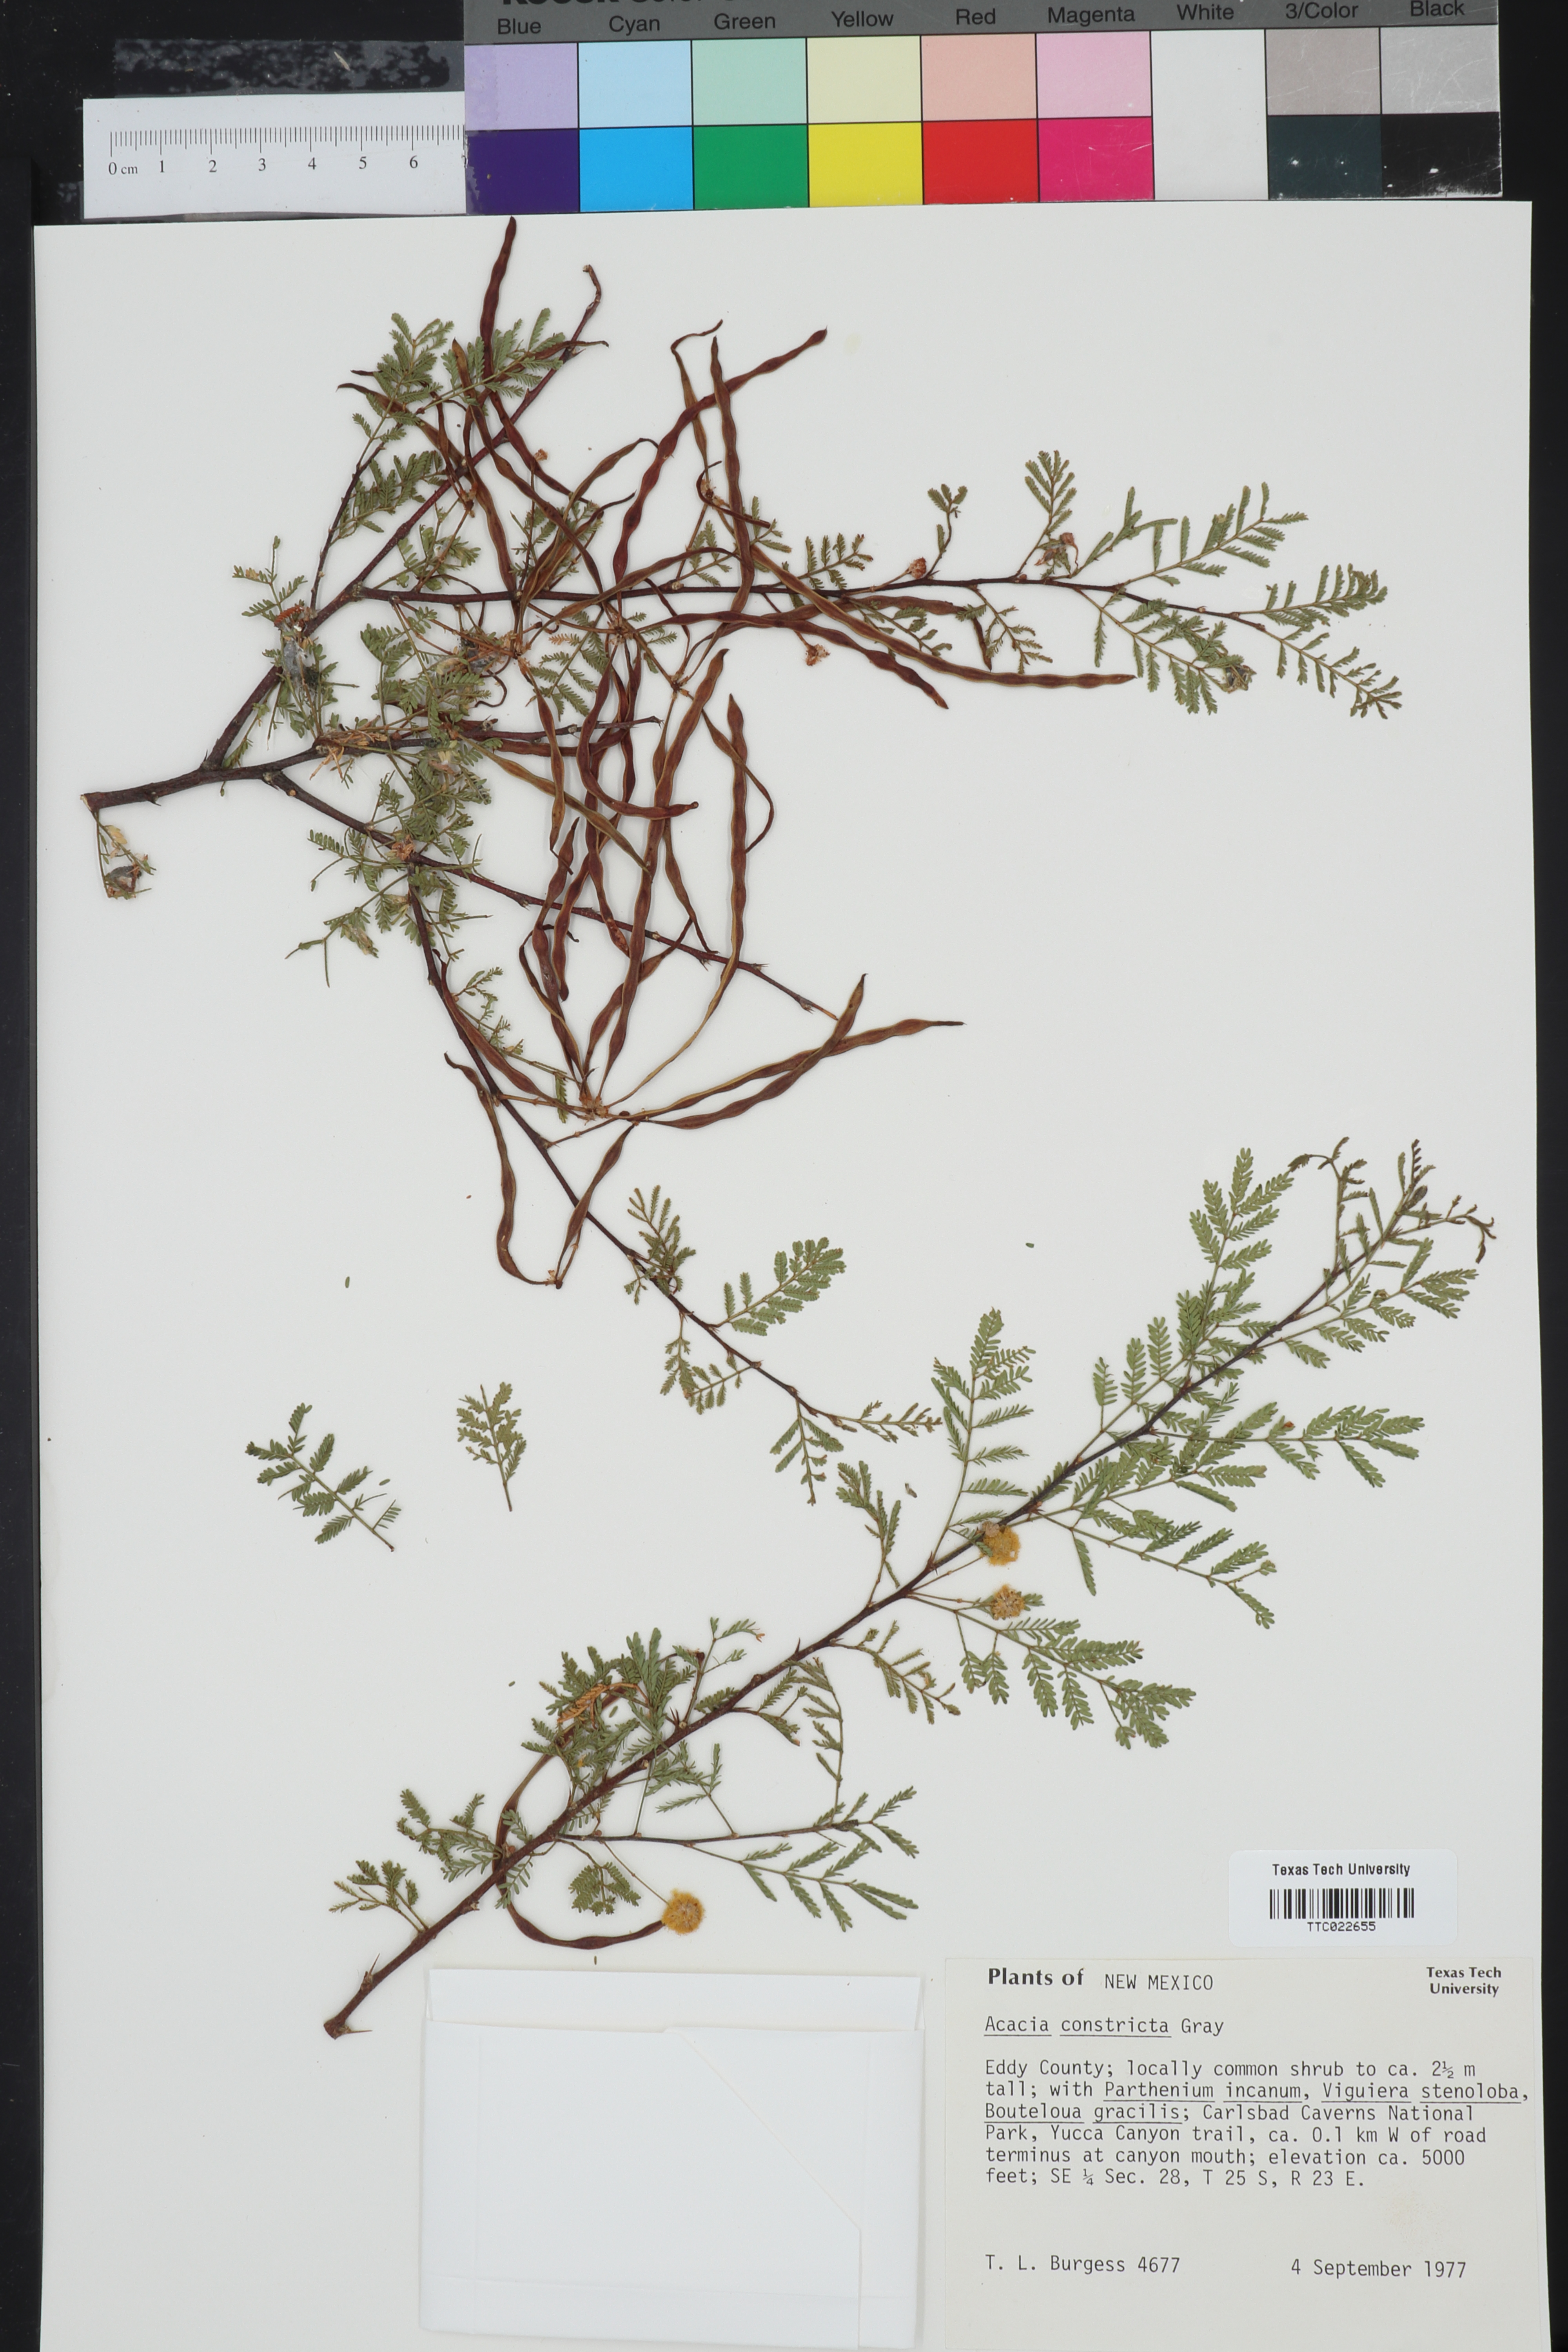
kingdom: Plantae
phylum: Tracheophyta
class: Magnoliopsida
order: Fabales
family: Fabaceae
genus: Vachellia
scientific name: Vachellia constricta
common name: Mescat acacia
